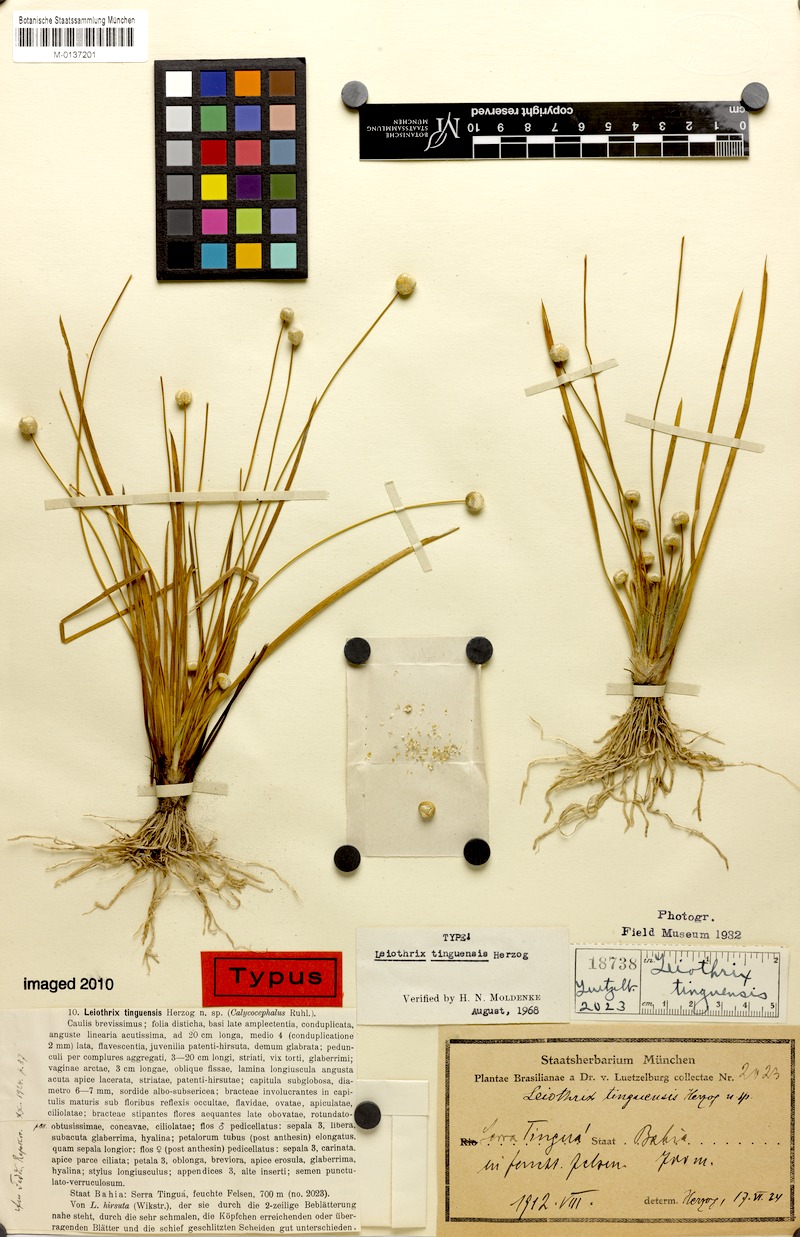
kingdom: Plantae
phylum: Tracheophyta
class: Liliopsida
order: Poales
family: Eriocaulaceae
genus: Leiothrix
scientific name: Leiothrix schlechtendalii
